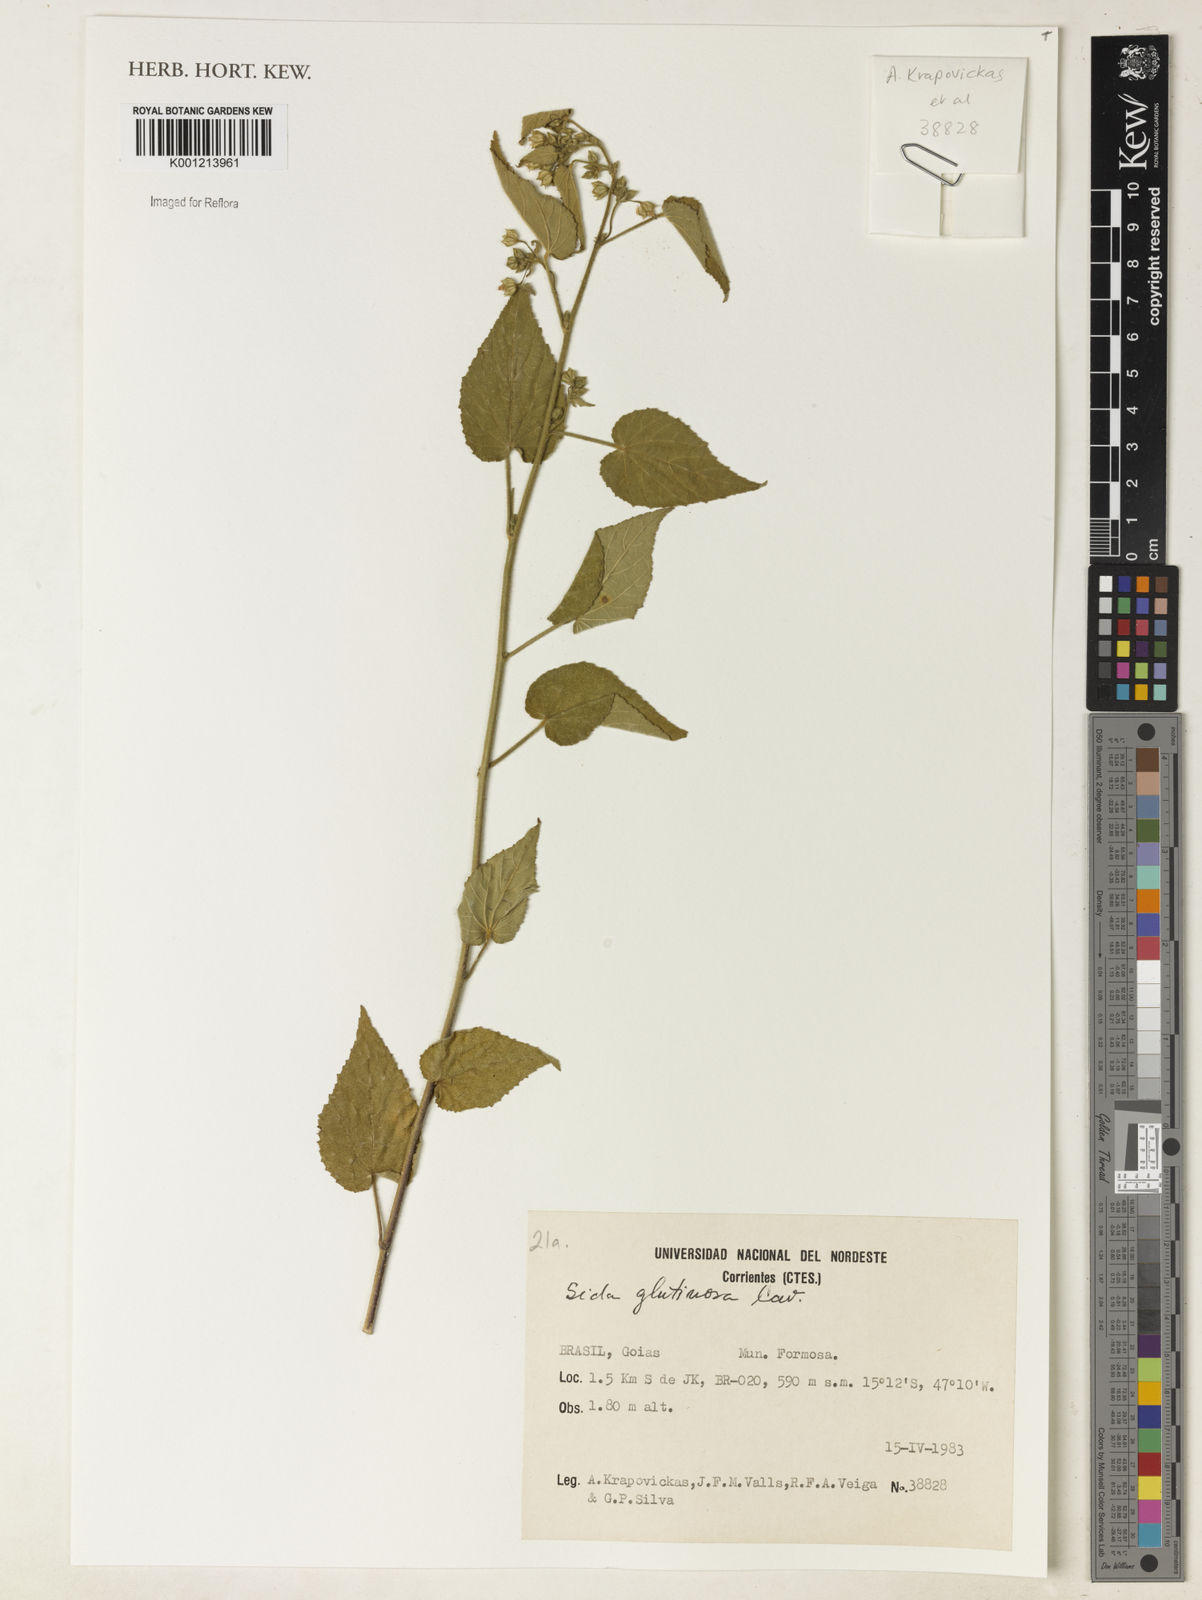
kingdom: Plantae
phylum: Tracheophyta
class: Magnoliopsida
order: Malvales
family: Malvaceae
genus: Sida
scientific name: Sida glutinosa
